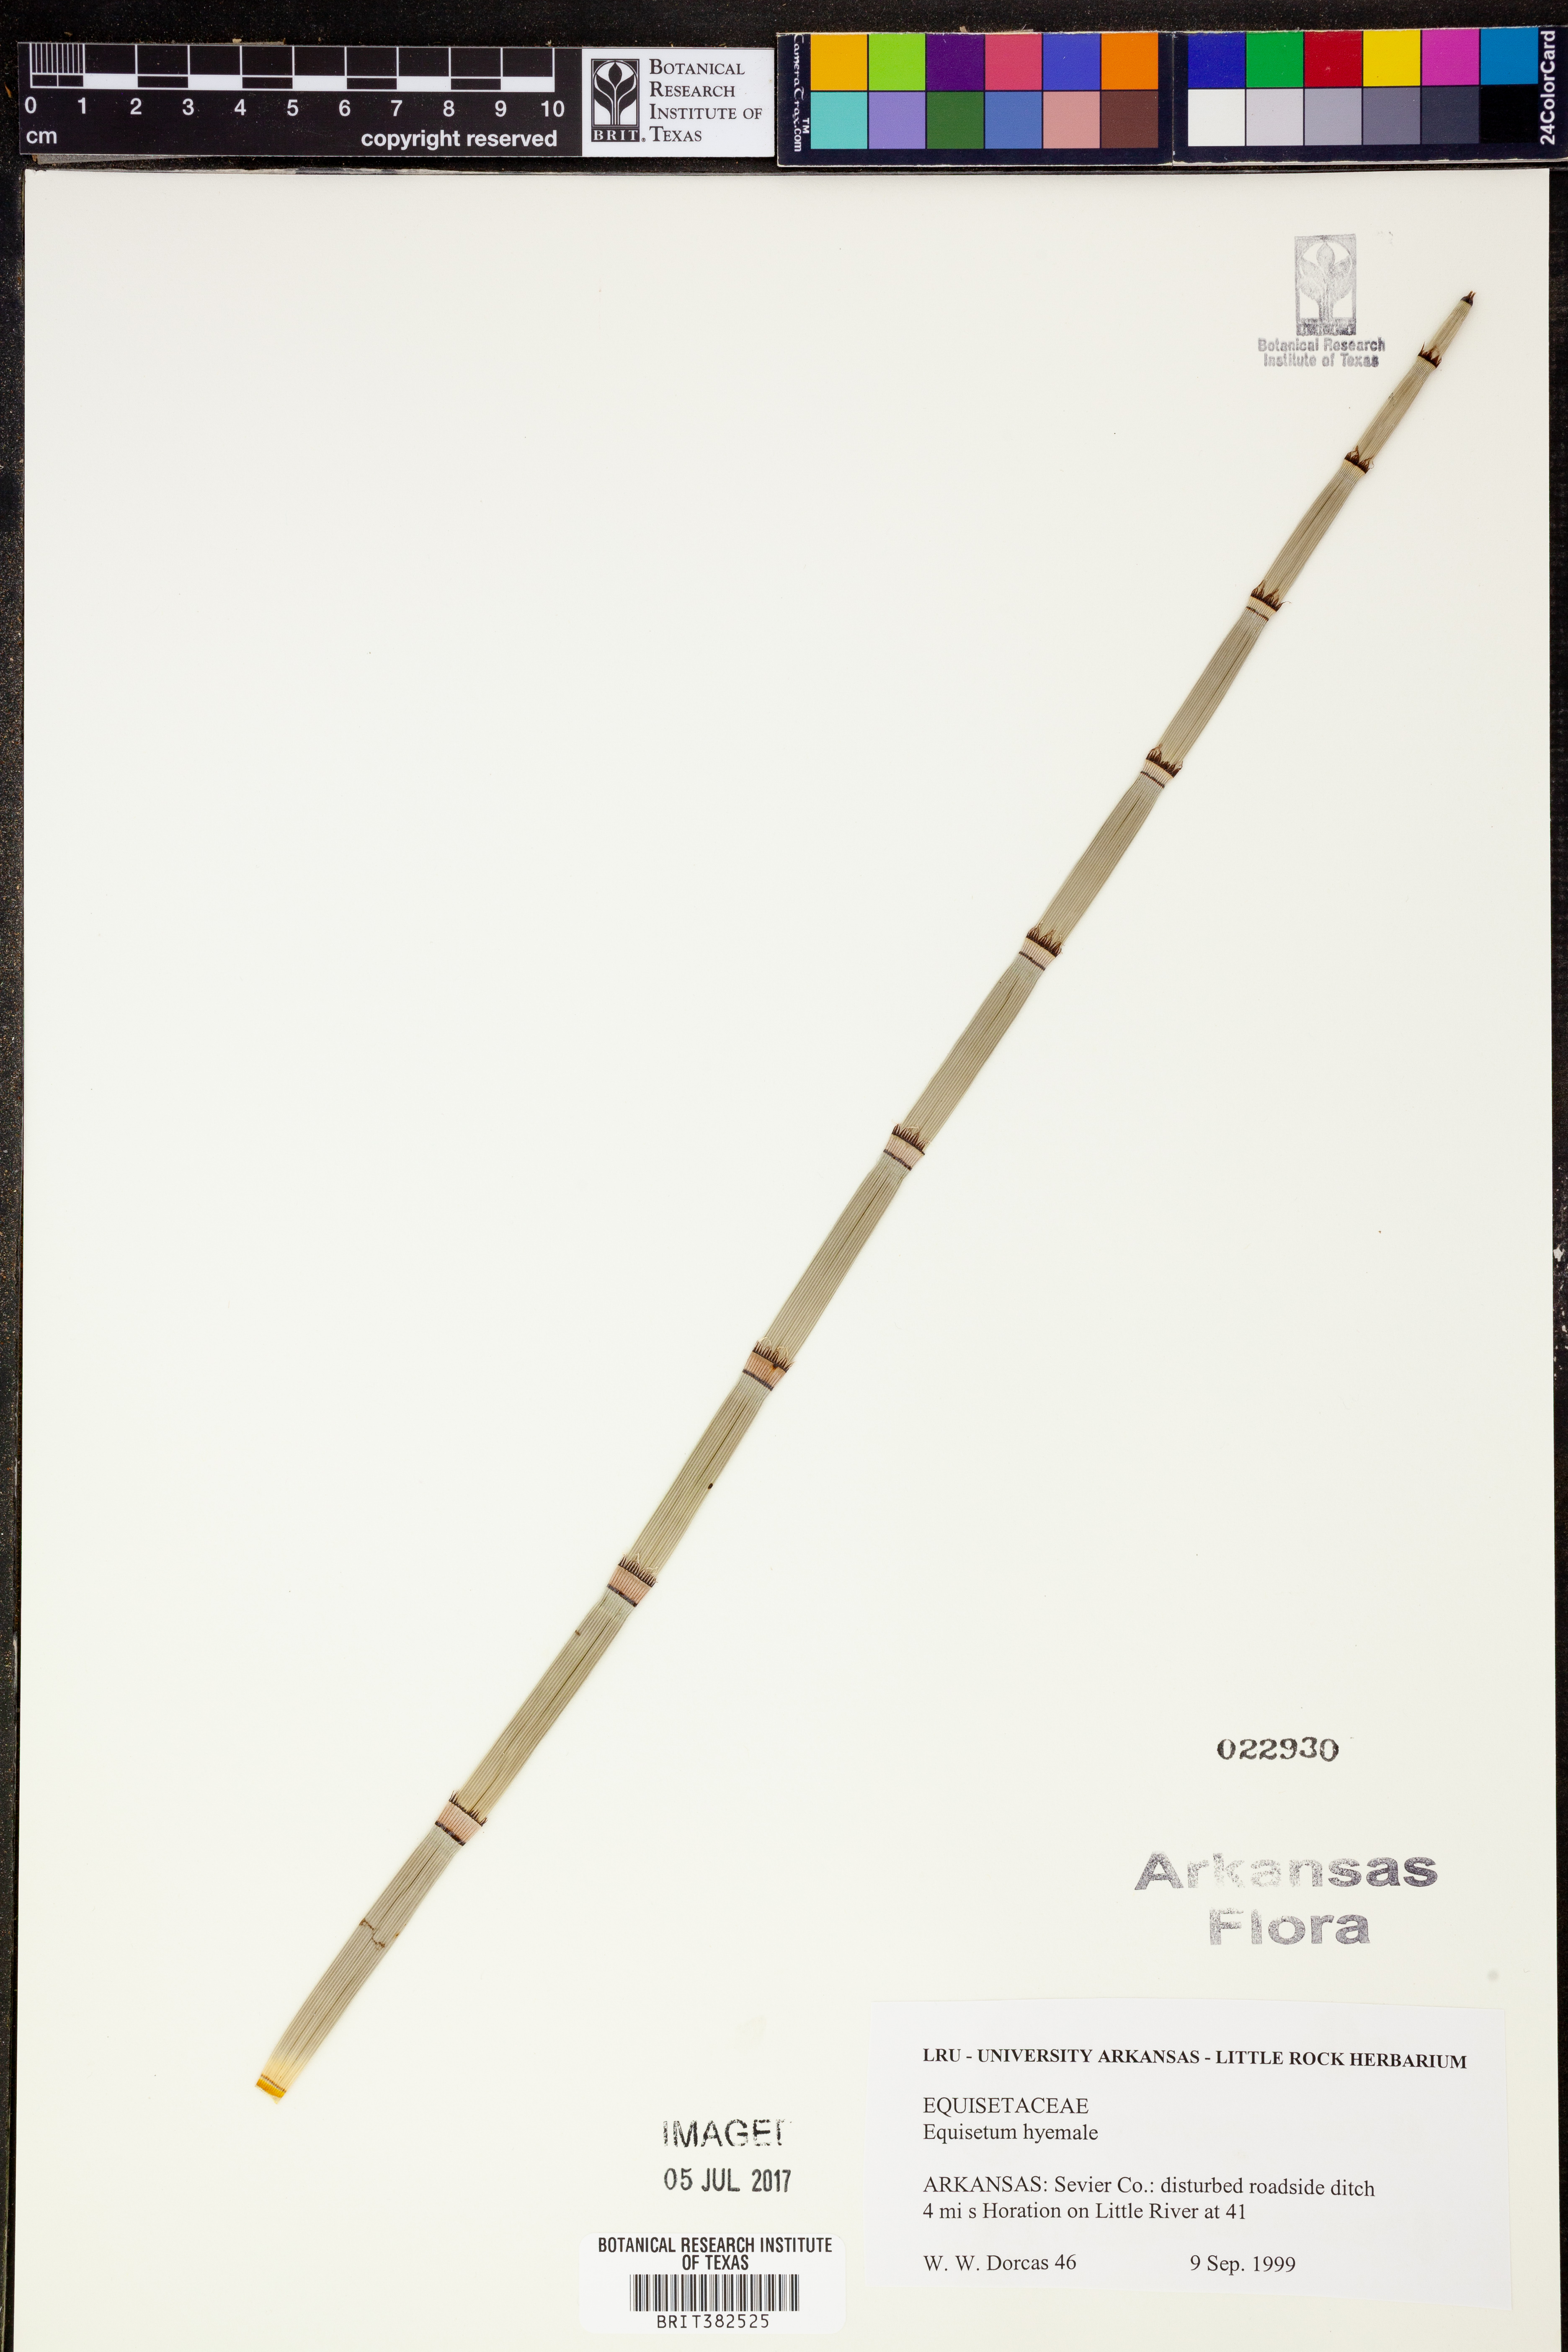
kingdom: Plantae
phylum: Tracheophyta
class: Polypodiopsida
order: Equisetales
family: Equisetaceae
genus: Equisetum
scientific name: Equisetum hyemale
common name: Rough horsetail
